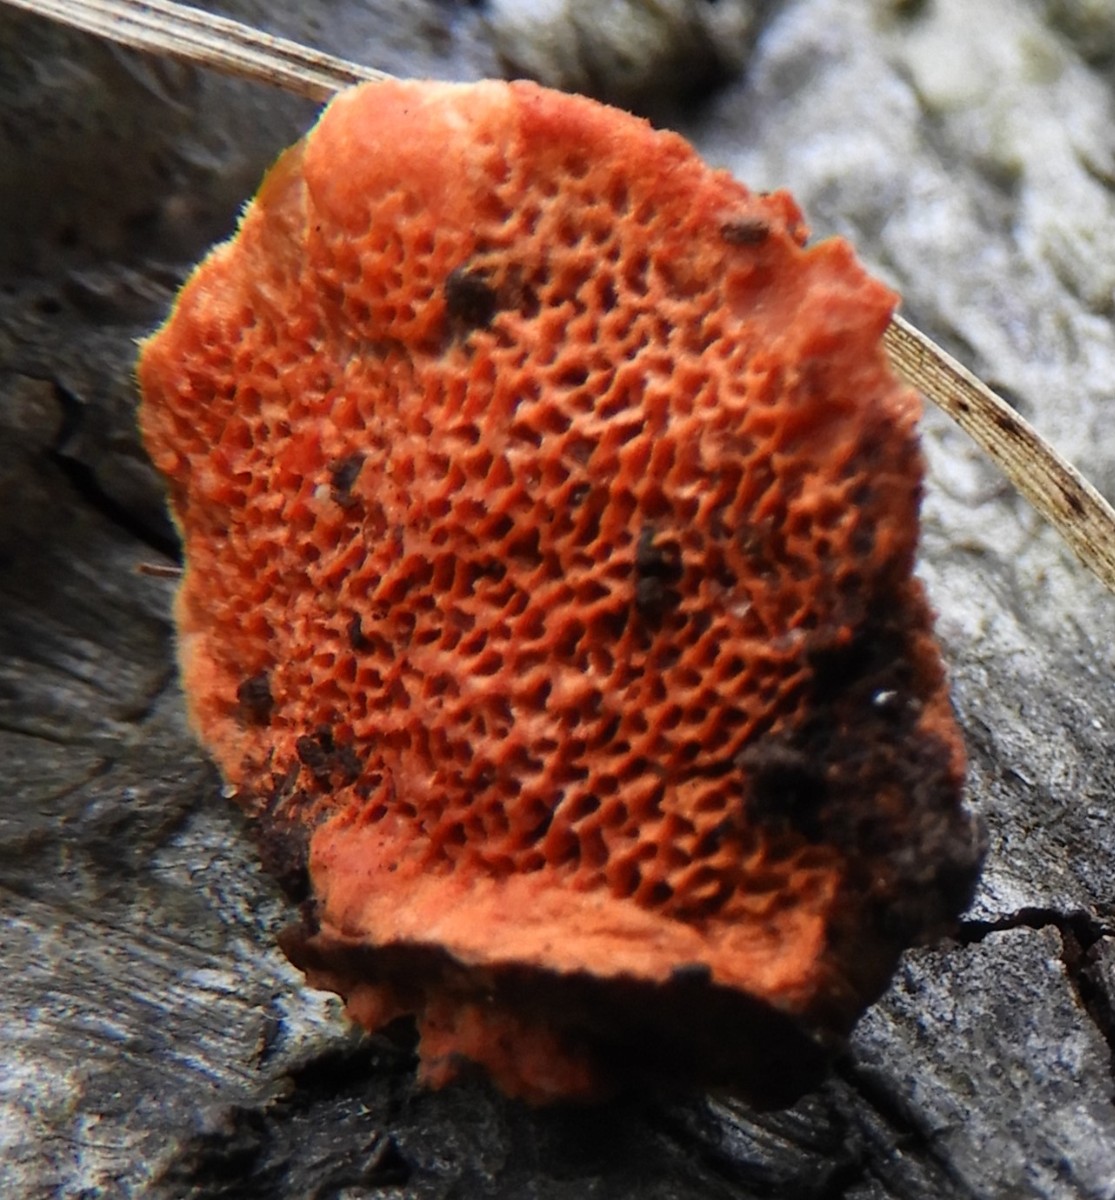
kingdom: Fungi
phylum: Basidiomycota
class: Agaricomycetes
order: Polyporales
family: Polyporaceae
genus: Trametes
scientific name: Trametes cinnabarina
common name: cinnoberporesvamp
